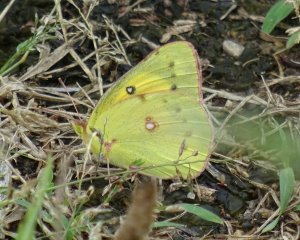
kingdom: Animalia
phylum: Arthropoda
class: Insecta
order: Lepidoptera
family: Pieridae
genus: Colias
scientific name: Colias eurytheme
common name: Orange Sulphur
